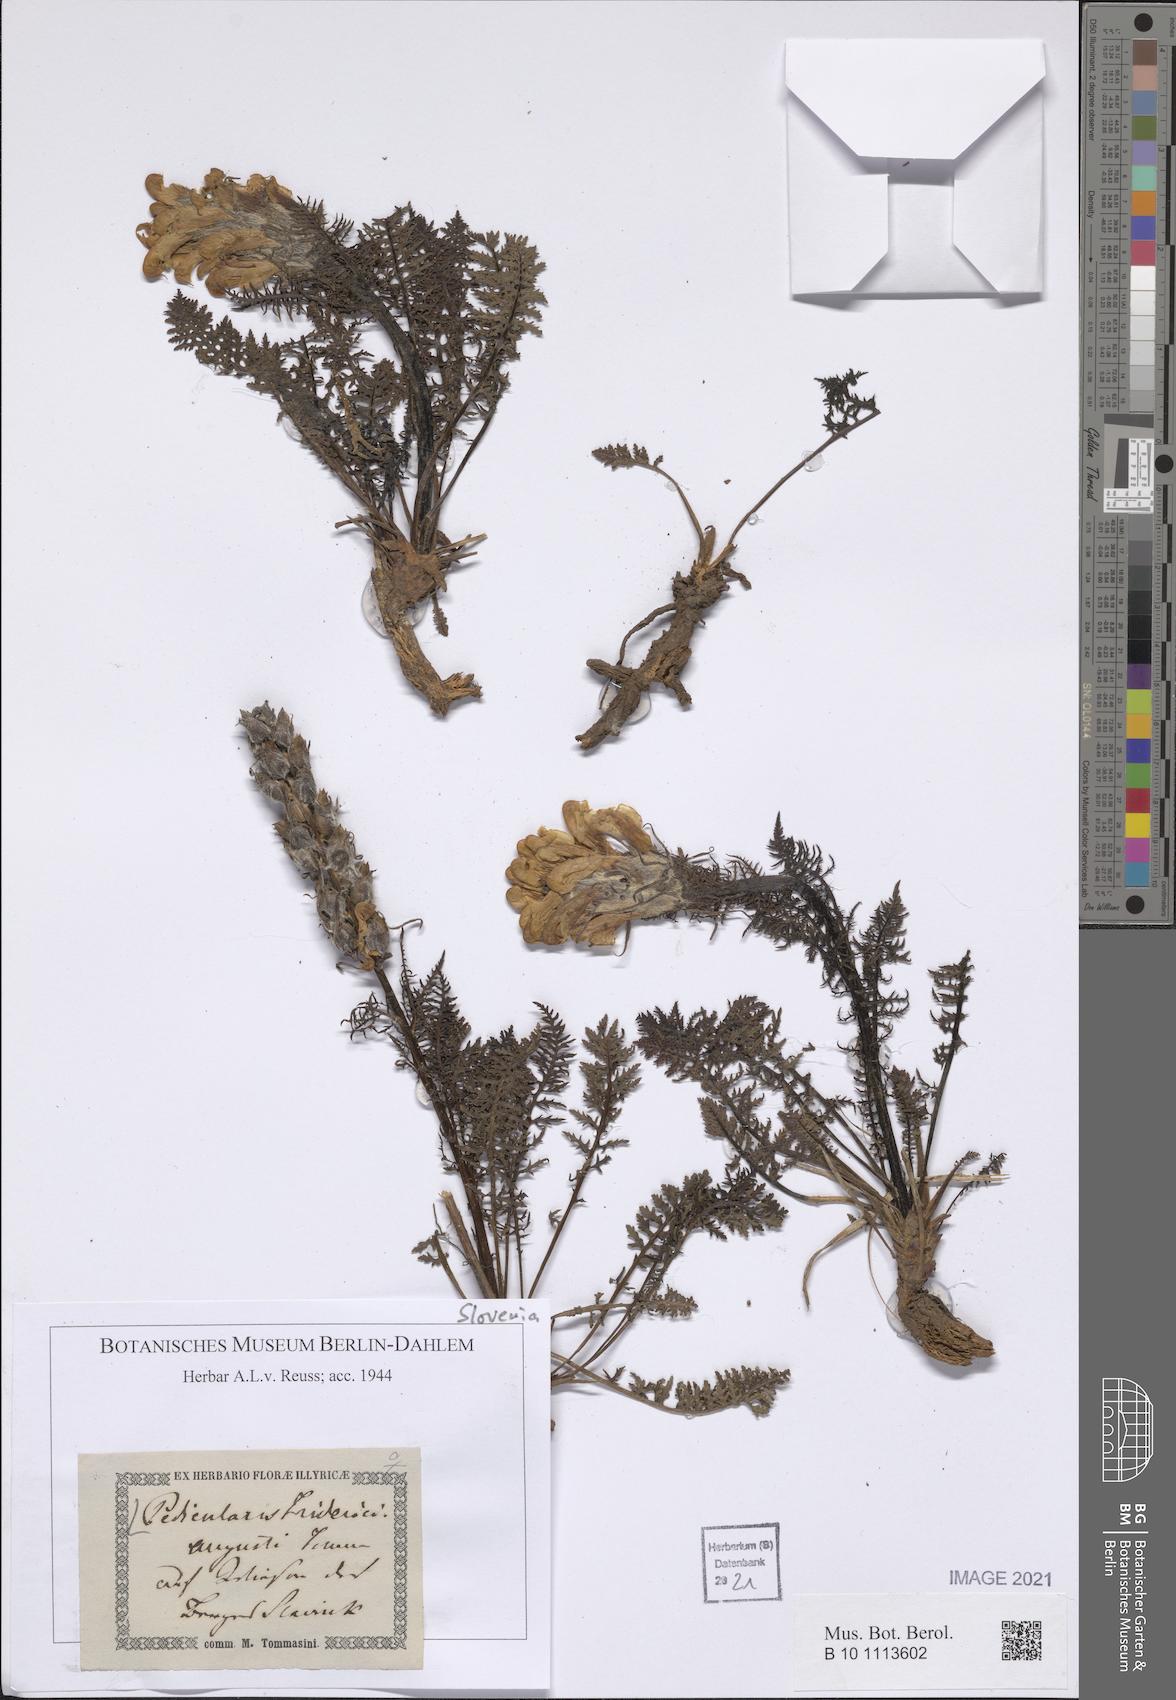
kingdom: Plantae
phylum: Tracheophyta
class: Magnoliopsida
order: Lamiales
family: Orobanchaceae
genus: Pedicularis
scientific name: Pedicularis friderici-augusti
